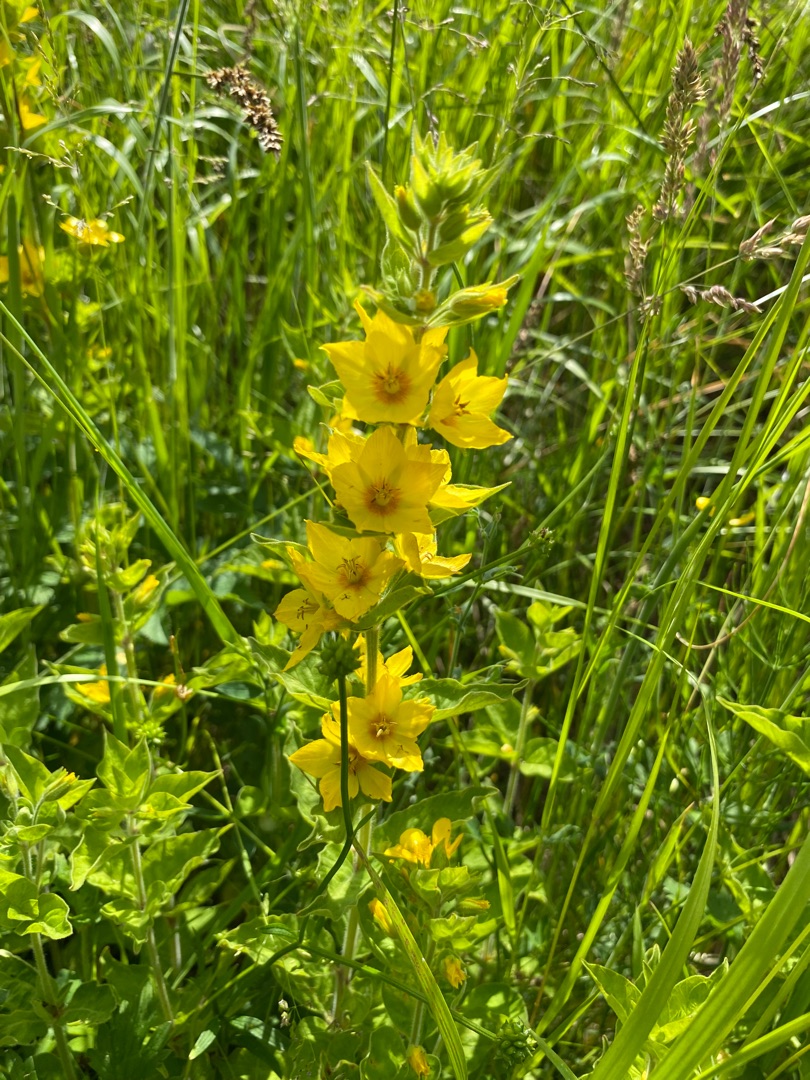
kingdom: Plantae
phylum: Tracheophyta
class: Magnoliopsida
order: Ericales
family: Primulaceae
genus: Lysimachia
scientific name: Lysimachia punctata
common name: Prikbladet fredløs
